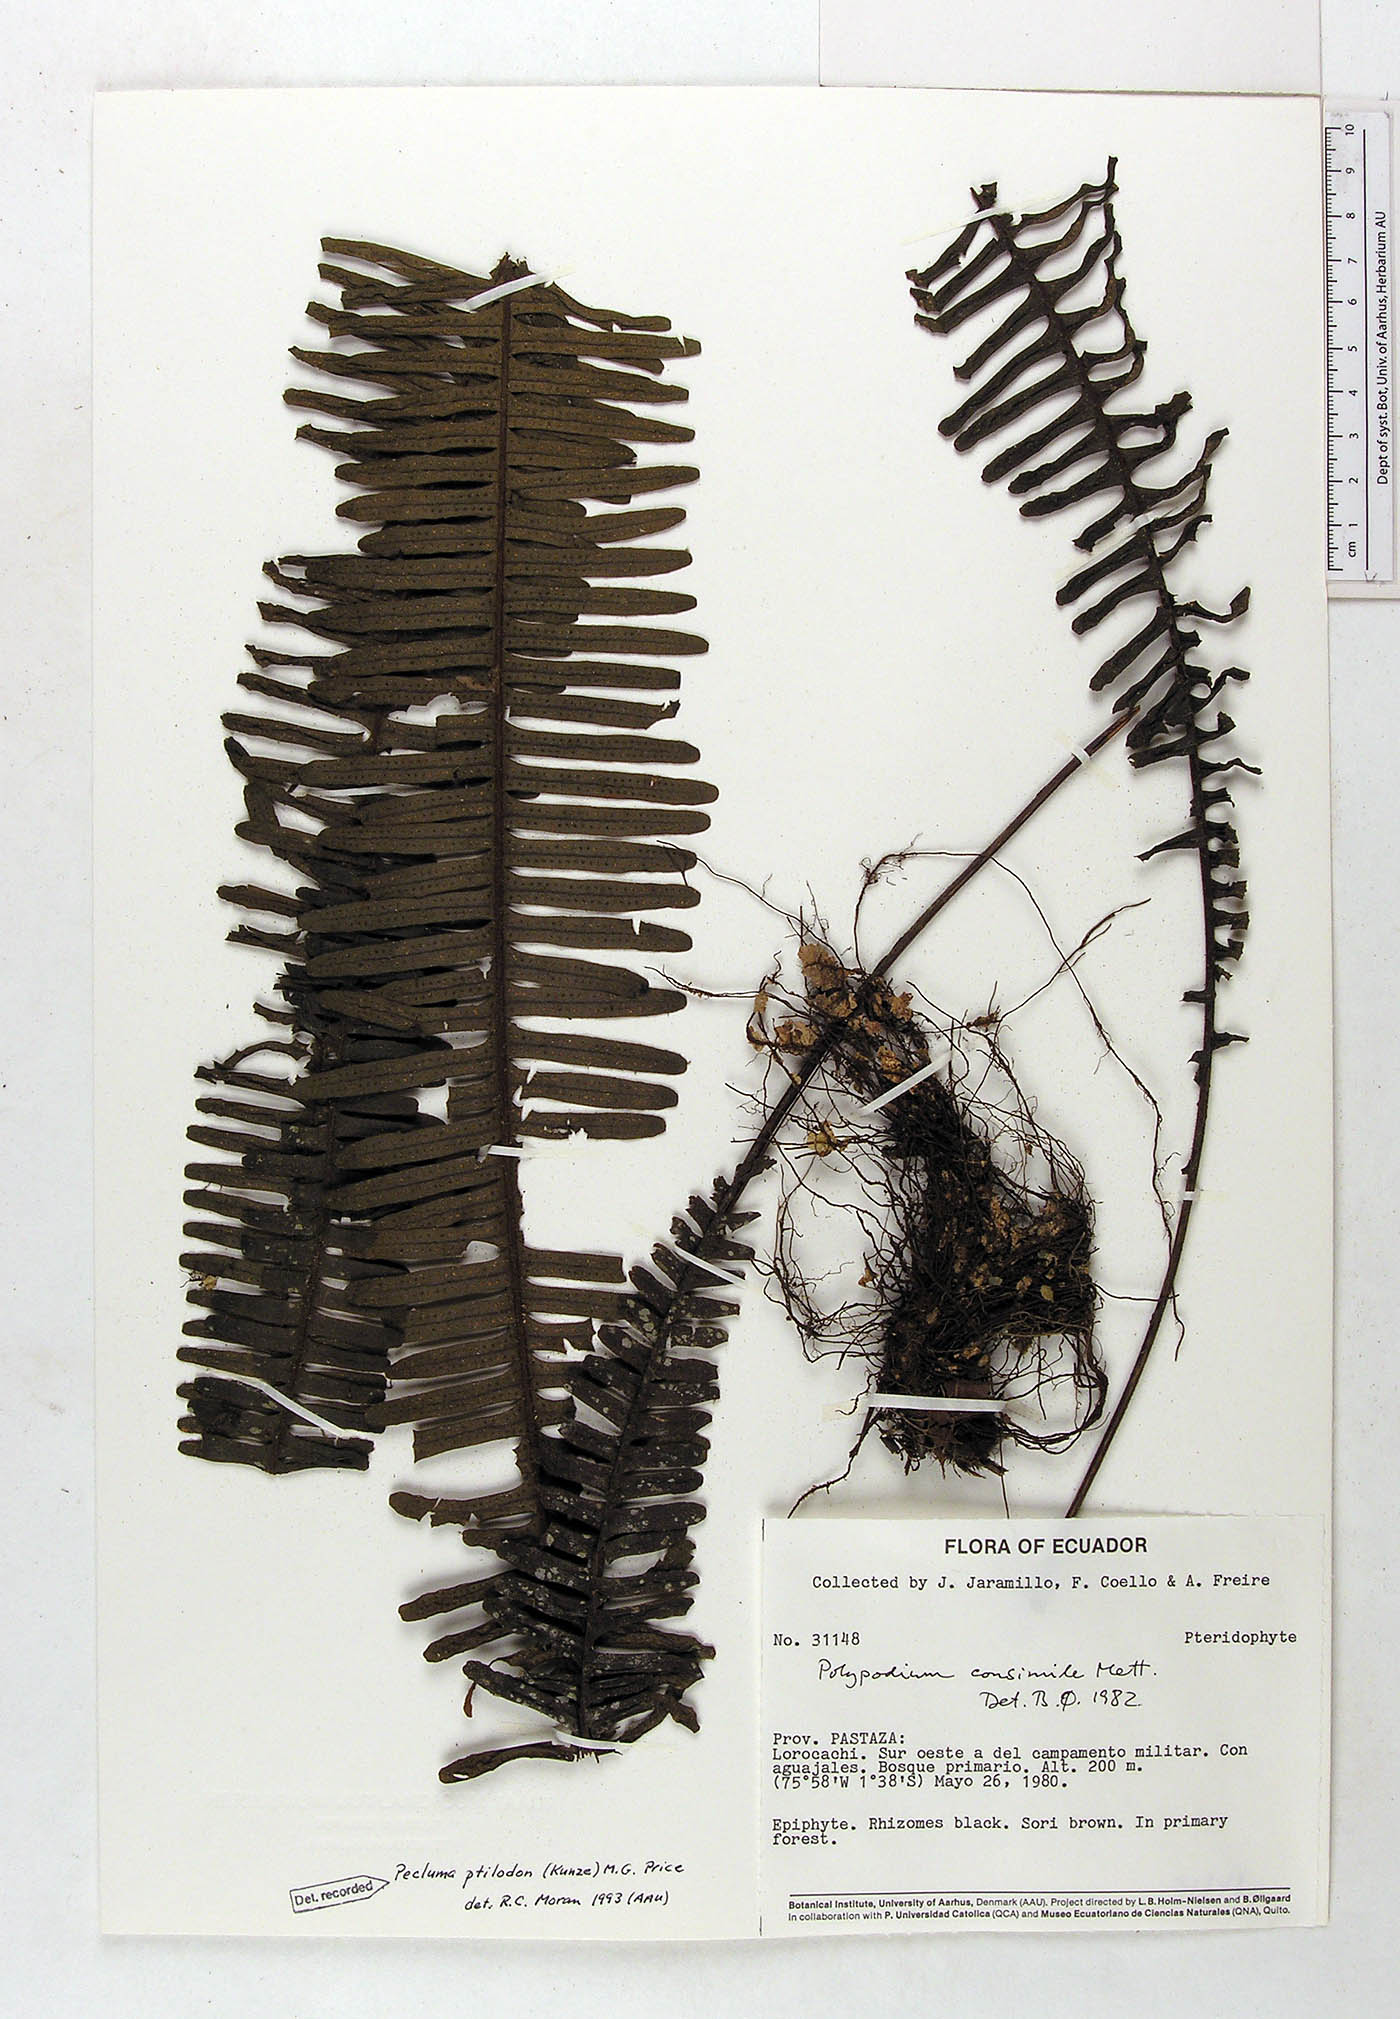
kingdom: Plantae
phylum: Tracheophyta
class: Polypodiopsida
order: Polypodiales
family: Polypodiaceae
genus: Pecluma
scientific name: Pecluma ptilotos
